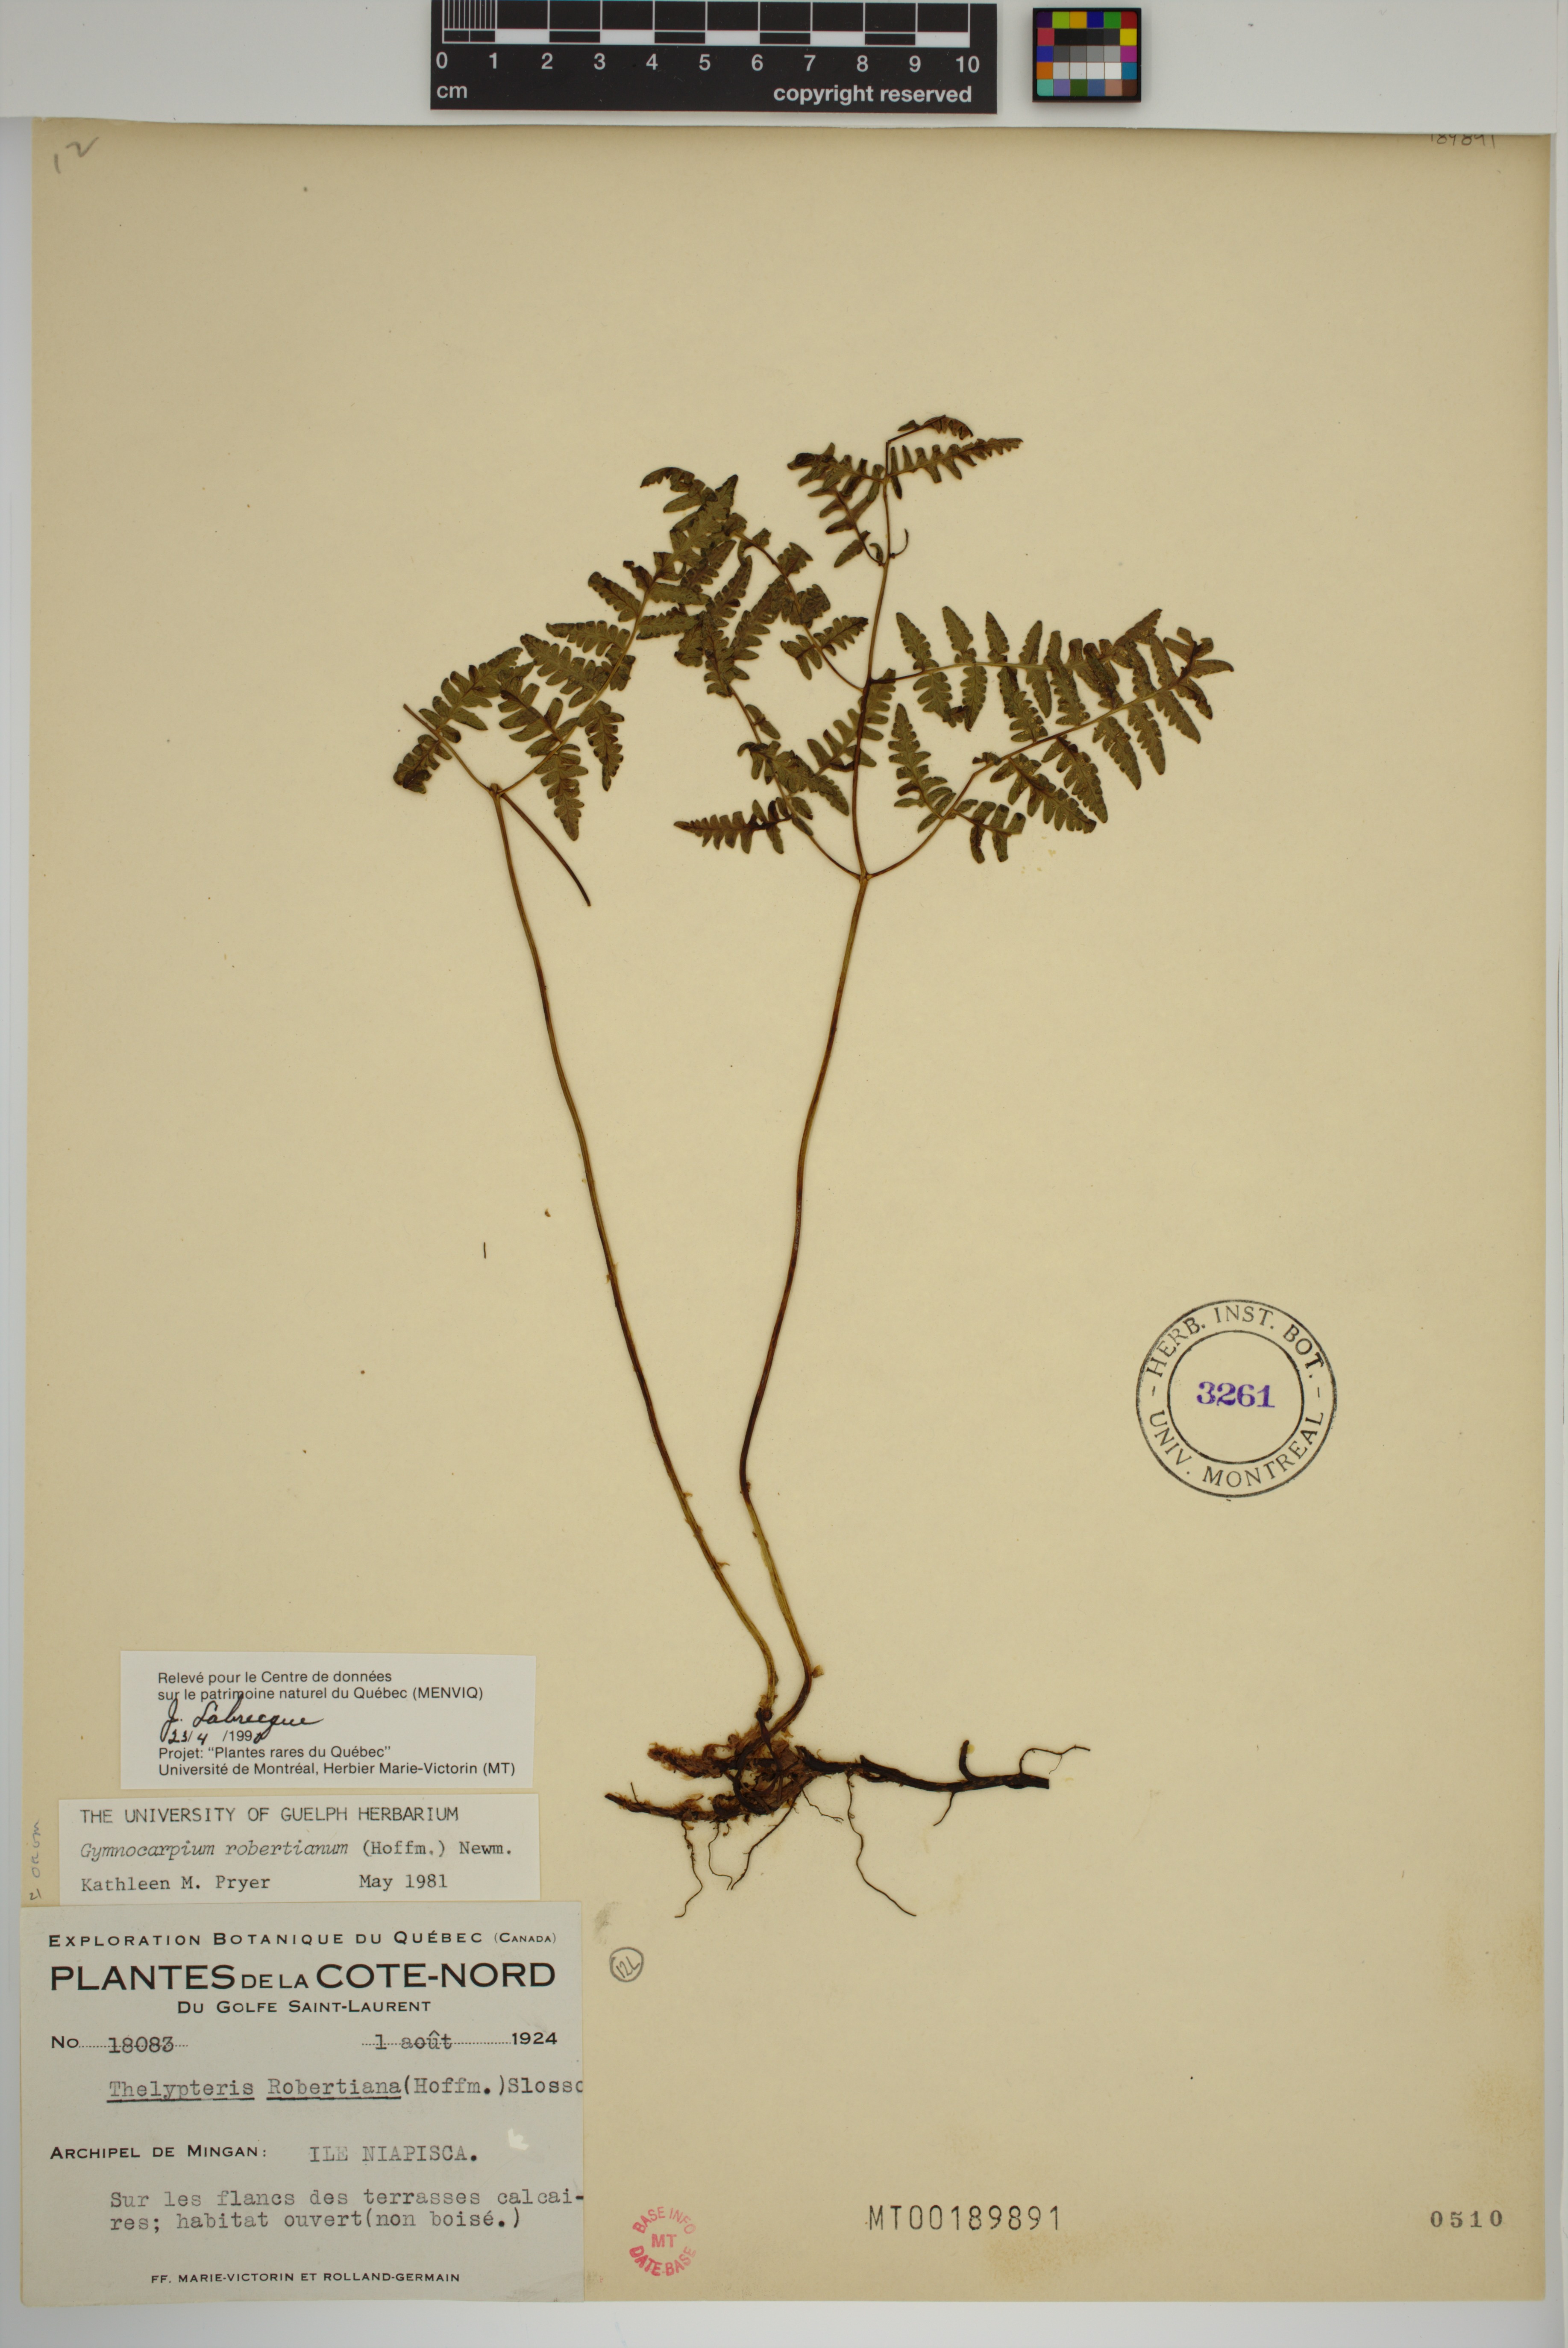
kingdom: Plantae
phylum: Tracheophyta
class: Polypodiopsida
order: Polypodiales
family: Cystopteridaceae
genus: Gymnocarpium
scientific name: Gymnocarpium robertianum
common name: Limestone fern
